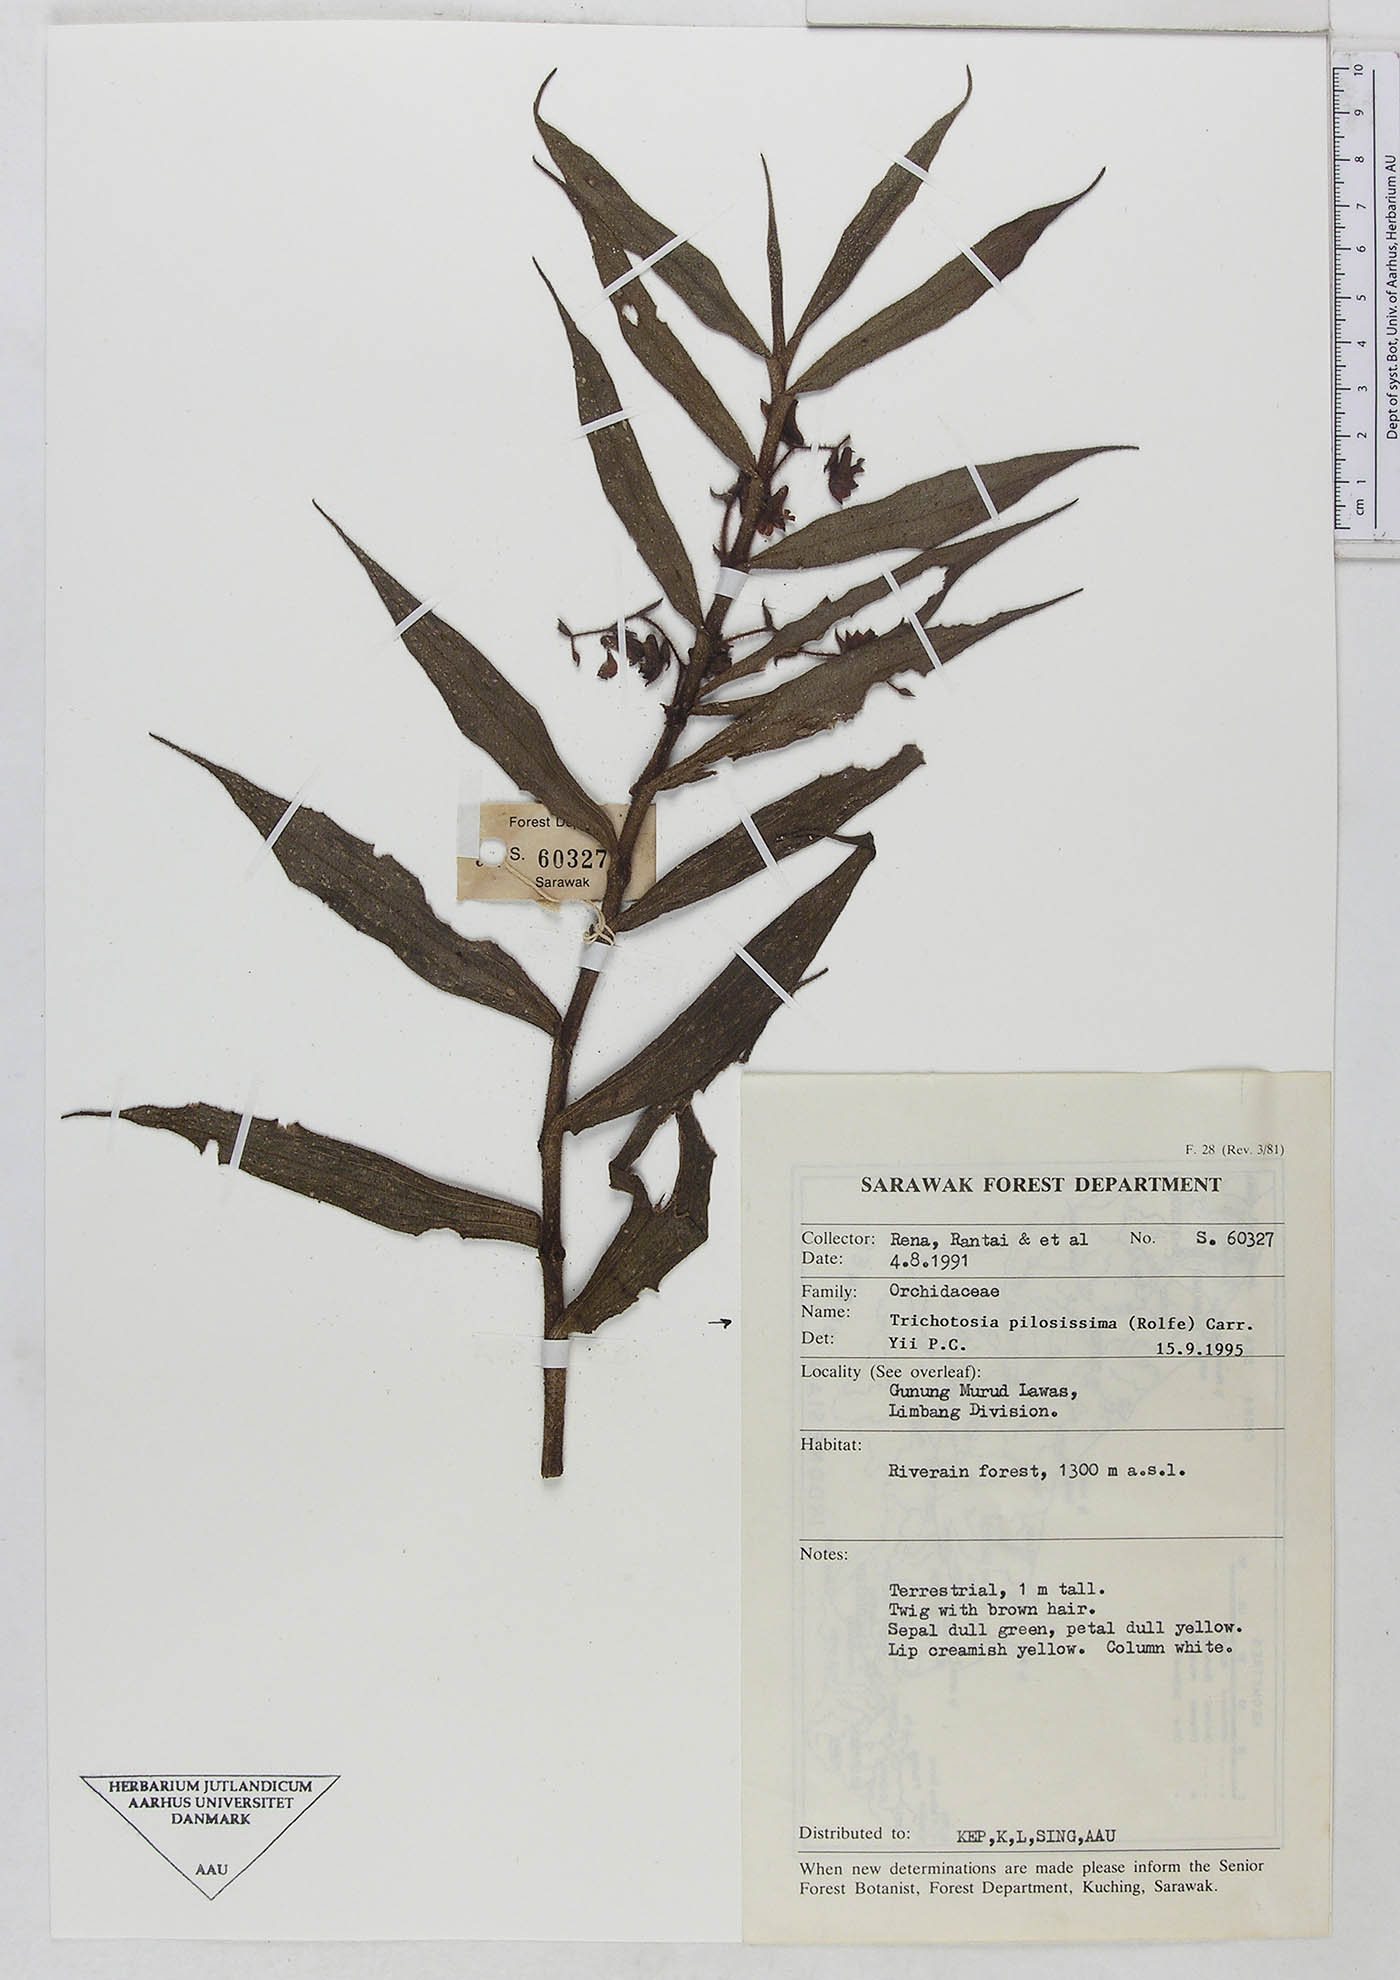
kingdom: Plantae
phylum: Tracheophyta
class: Liliopsida
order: Asparagales
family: Orchidaceae
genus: Trichotosia
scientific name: Trichotosia pilosissima
